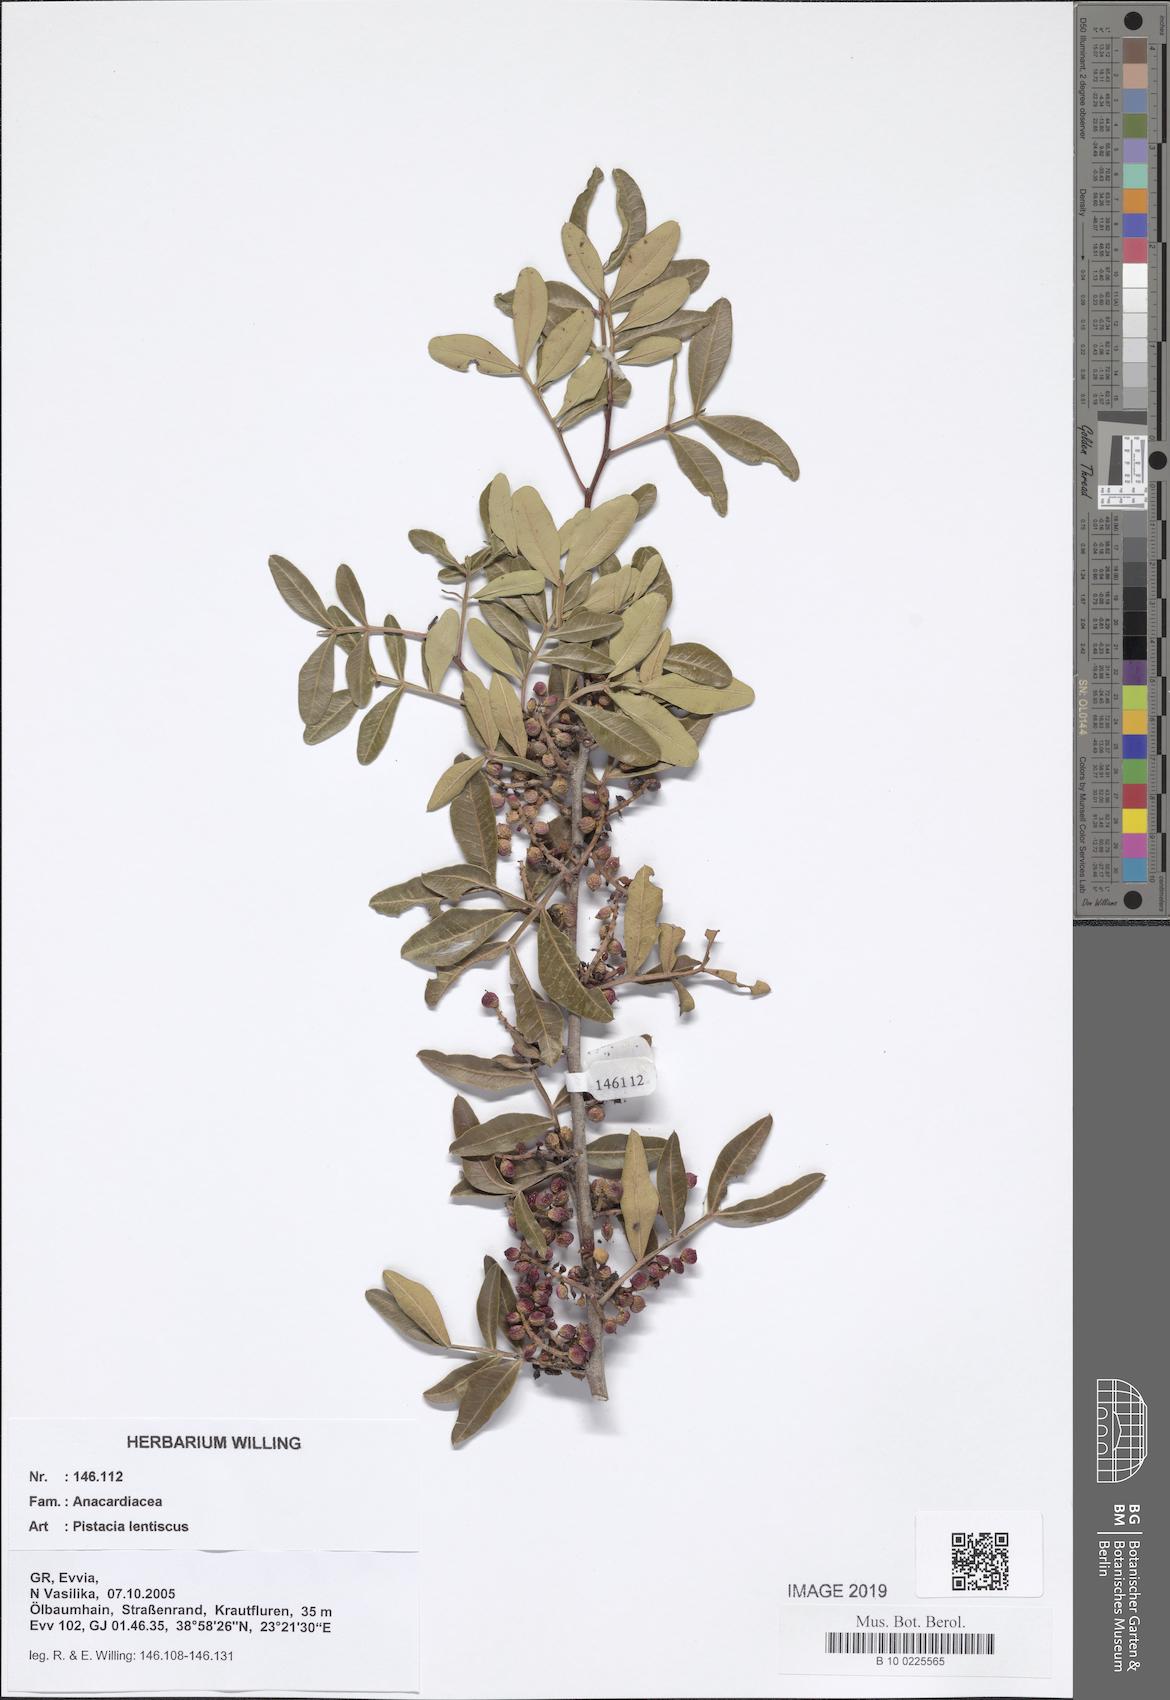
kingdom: Plantae
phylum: Tracheophyta
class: Magnoliopsida
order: Sapindales
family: Anacardiaceae
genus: Pistacia
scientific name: Pistacia lentiscus
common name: Lentisk
